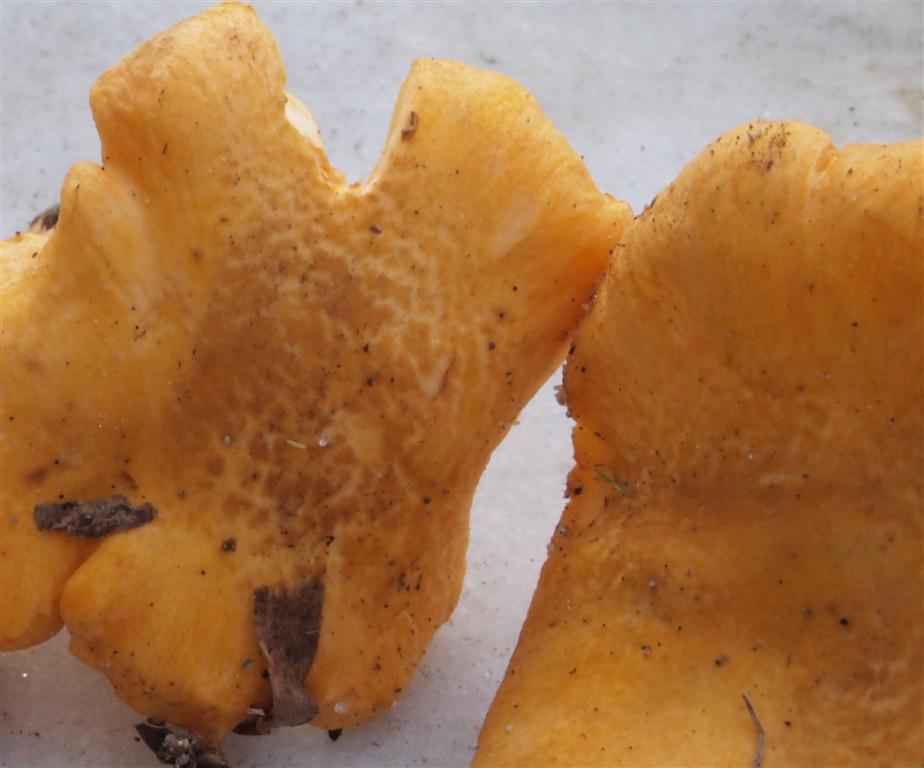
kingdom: Fungi
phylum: Basidiomycota
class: Agaricomycetes
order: Cantharellales
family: Hydnaceae
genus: Cantharellus
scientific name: Cantharellus amethysteus
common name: ametyst-kantarel
